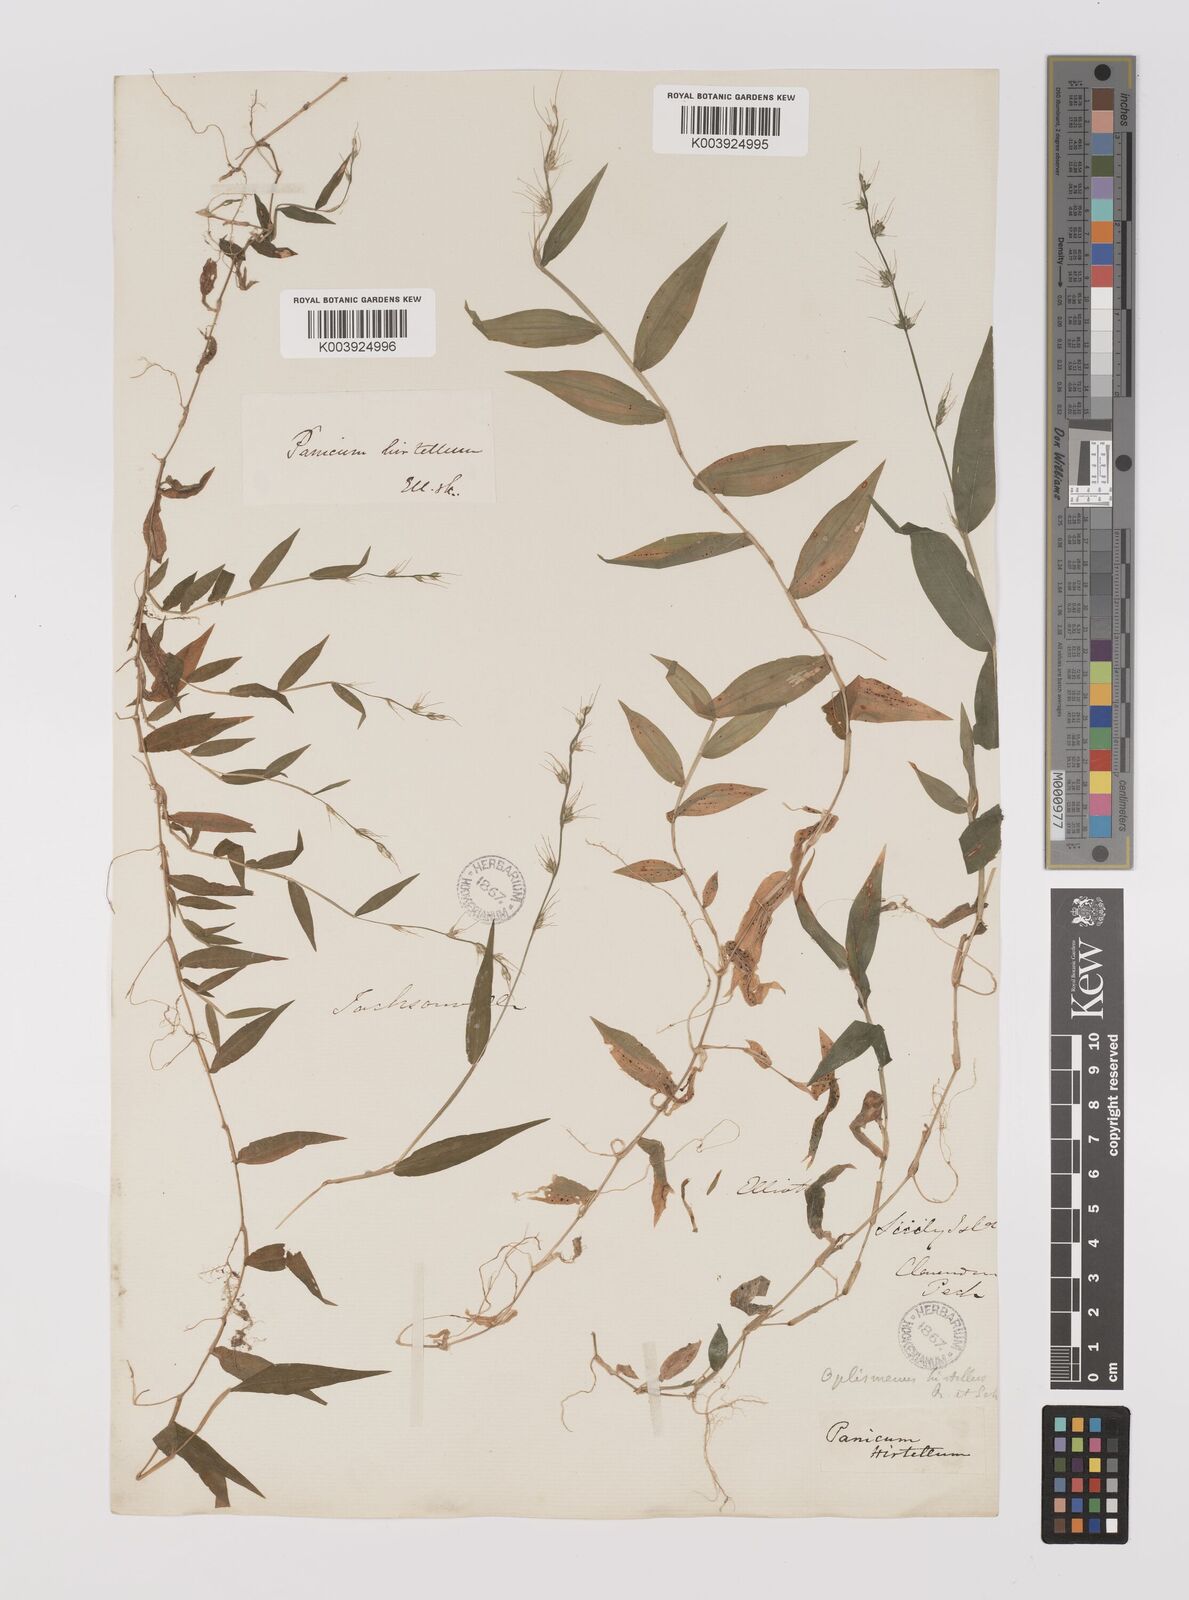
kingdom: Plantae
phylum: Tracheophyta
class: Liliopsida
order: Poales
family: Poaceae
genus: Oplismenus
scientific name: Oplismenus undulatifolius
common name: Wavyleaf basketgrass
